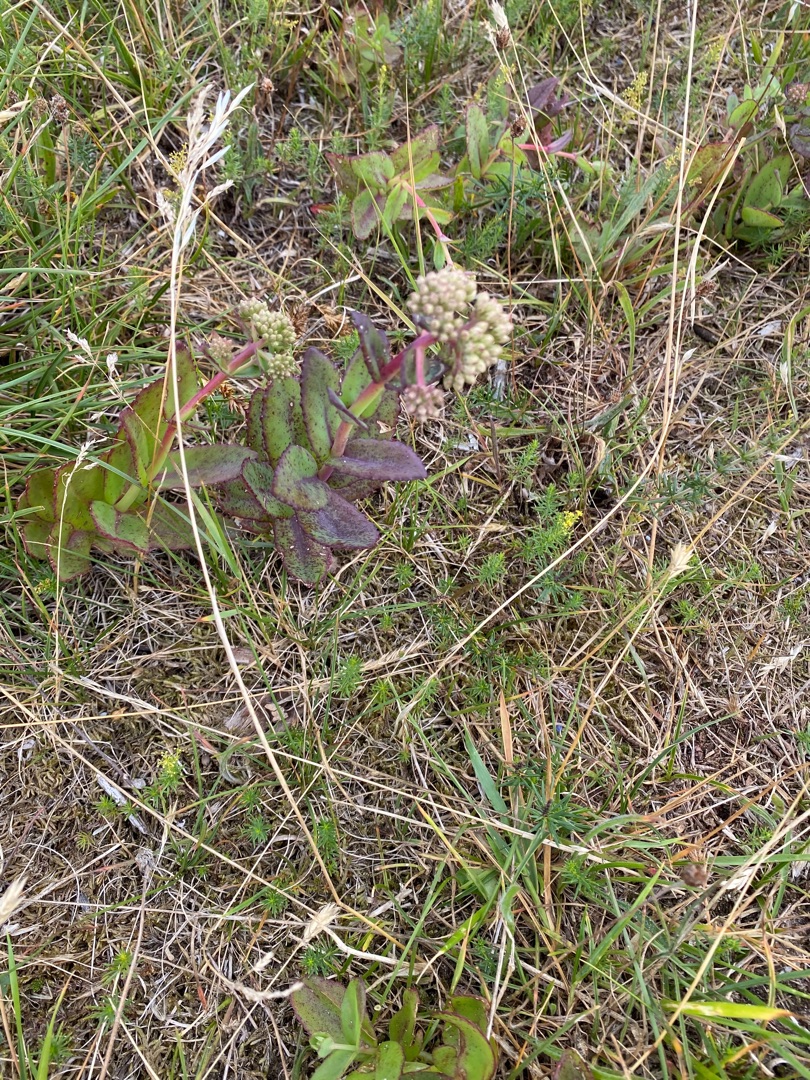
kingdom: Plantae
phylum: Tracheophyta
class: Magnoliopsida
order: Saxifragales
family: Crassulaceae
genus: Hylotelephium
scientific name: Hylotelephium maximum
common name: Almindelig sankthansurt
